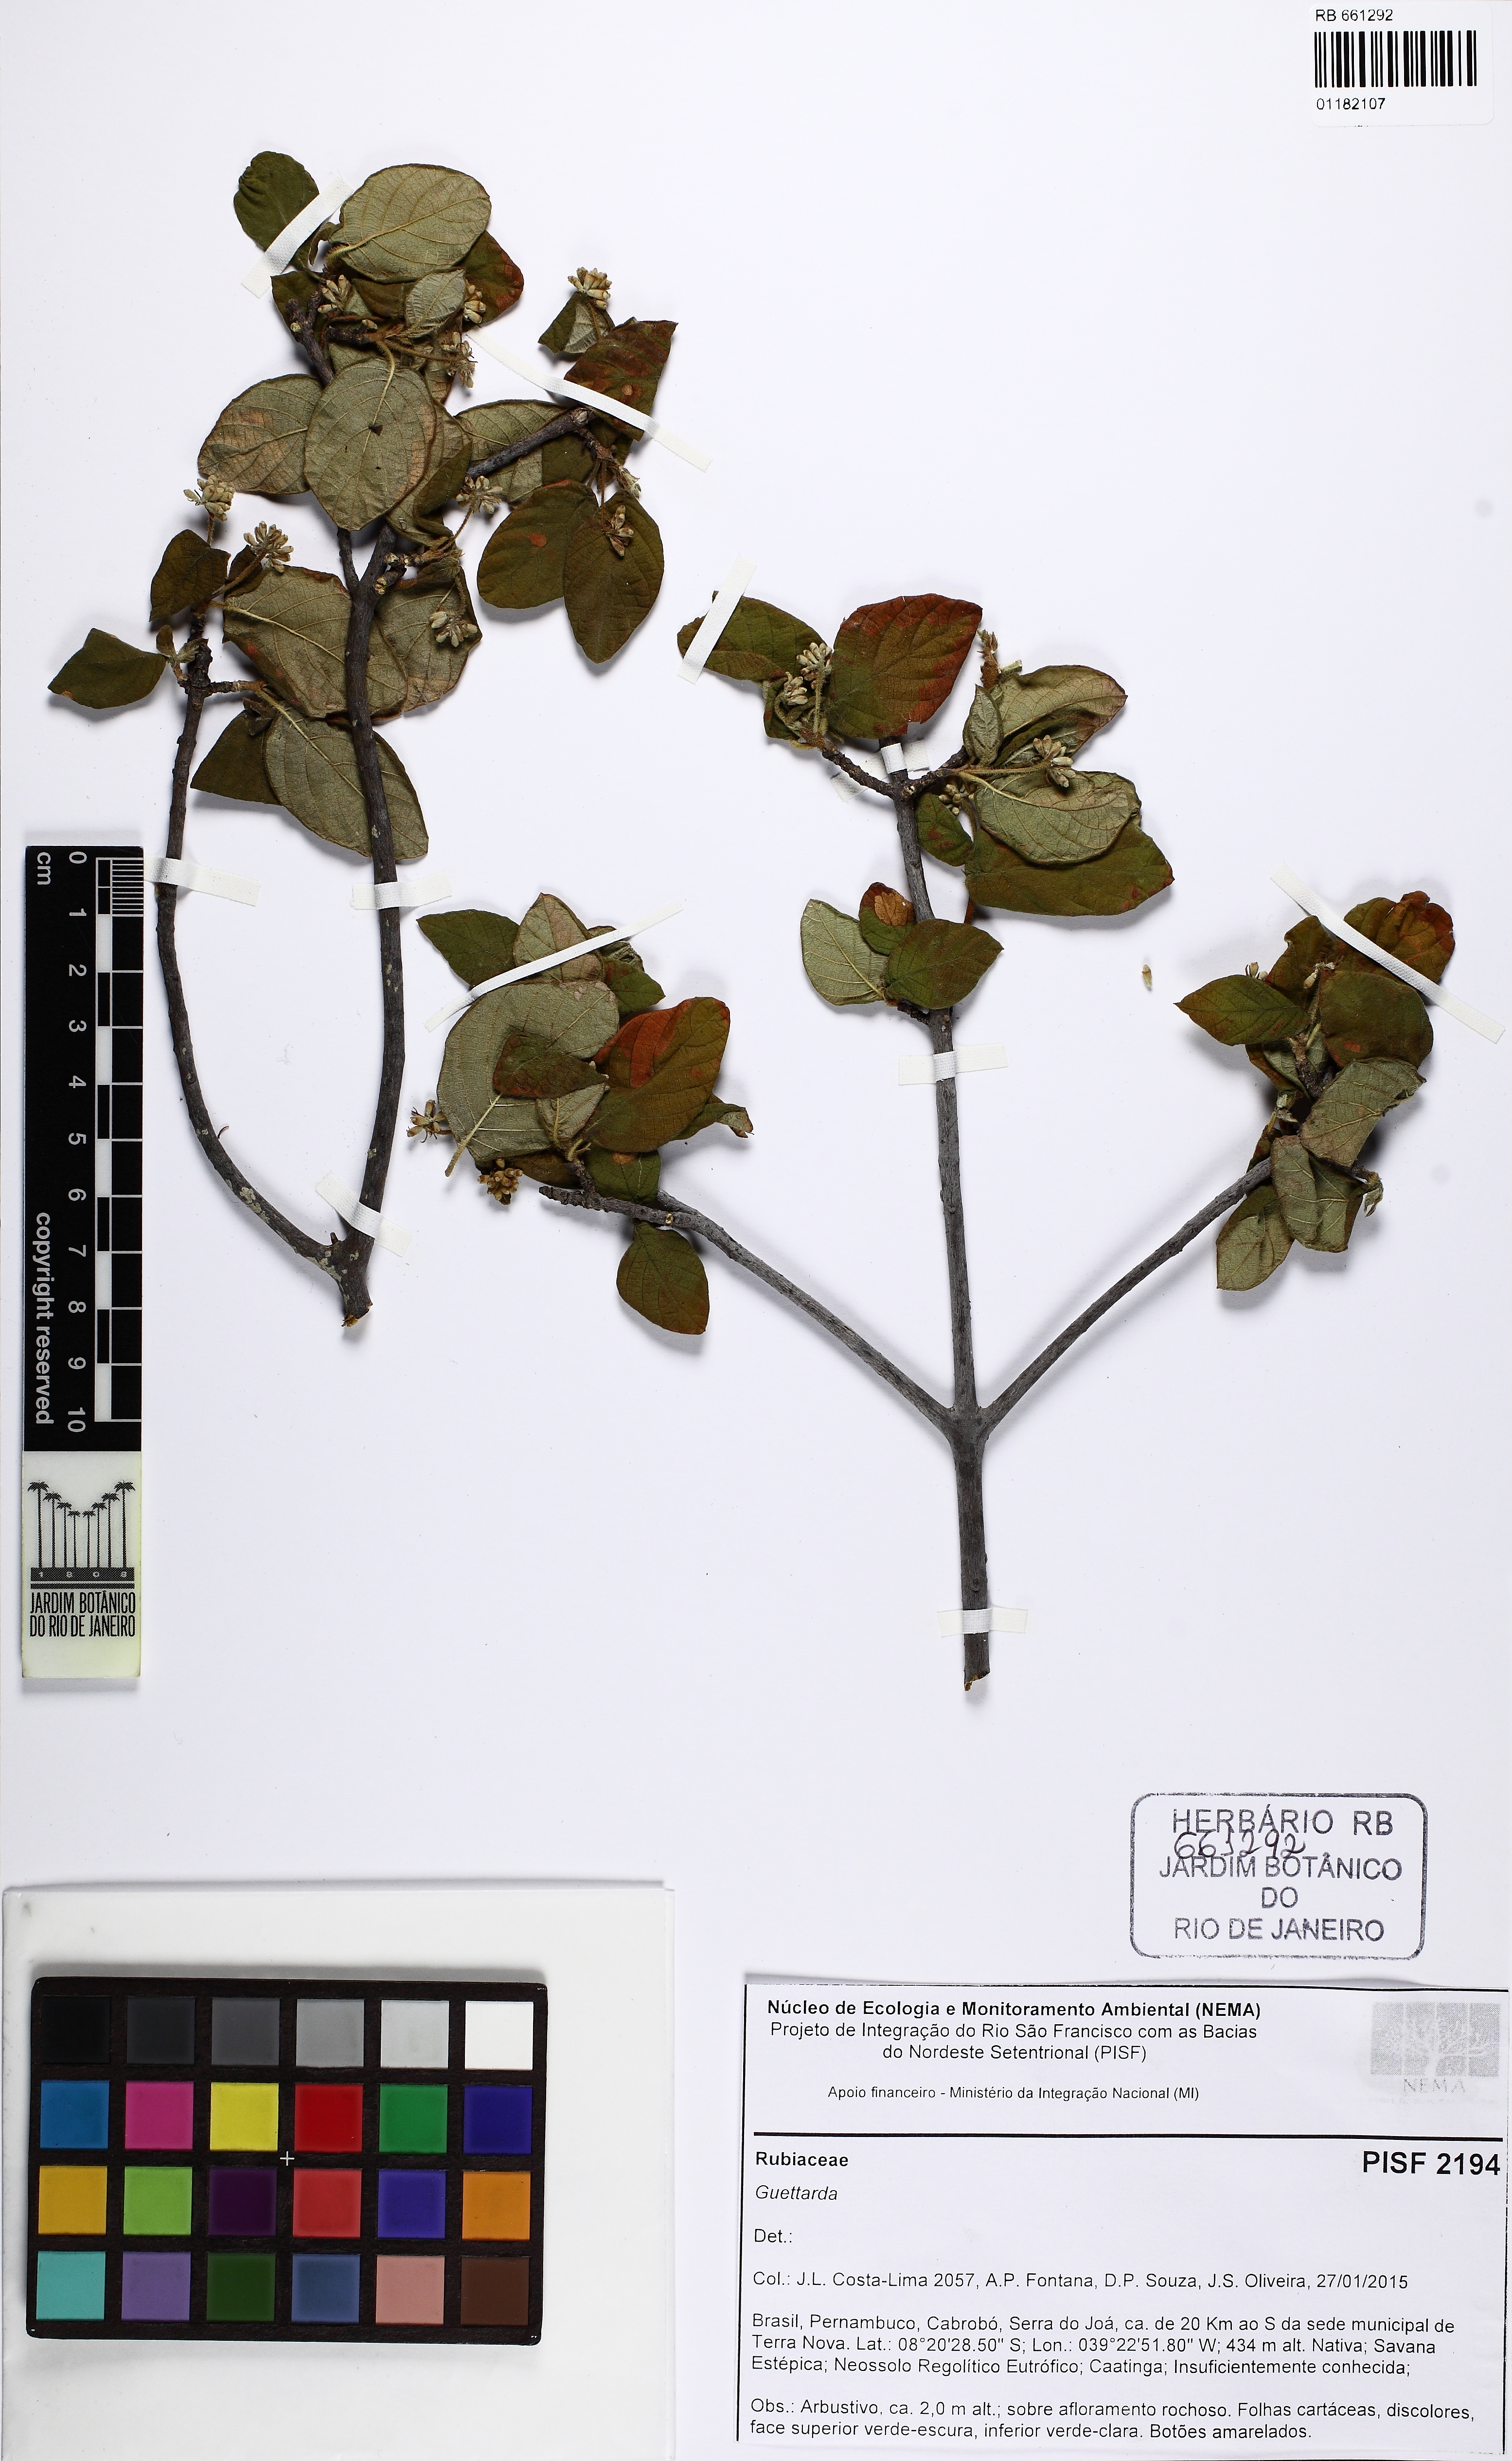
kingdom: Plantae
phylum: Tracheophyta
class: Magnoliopsida
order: Gentianales
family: Rubiaceae
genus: Guettarda
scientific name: Guettarda
